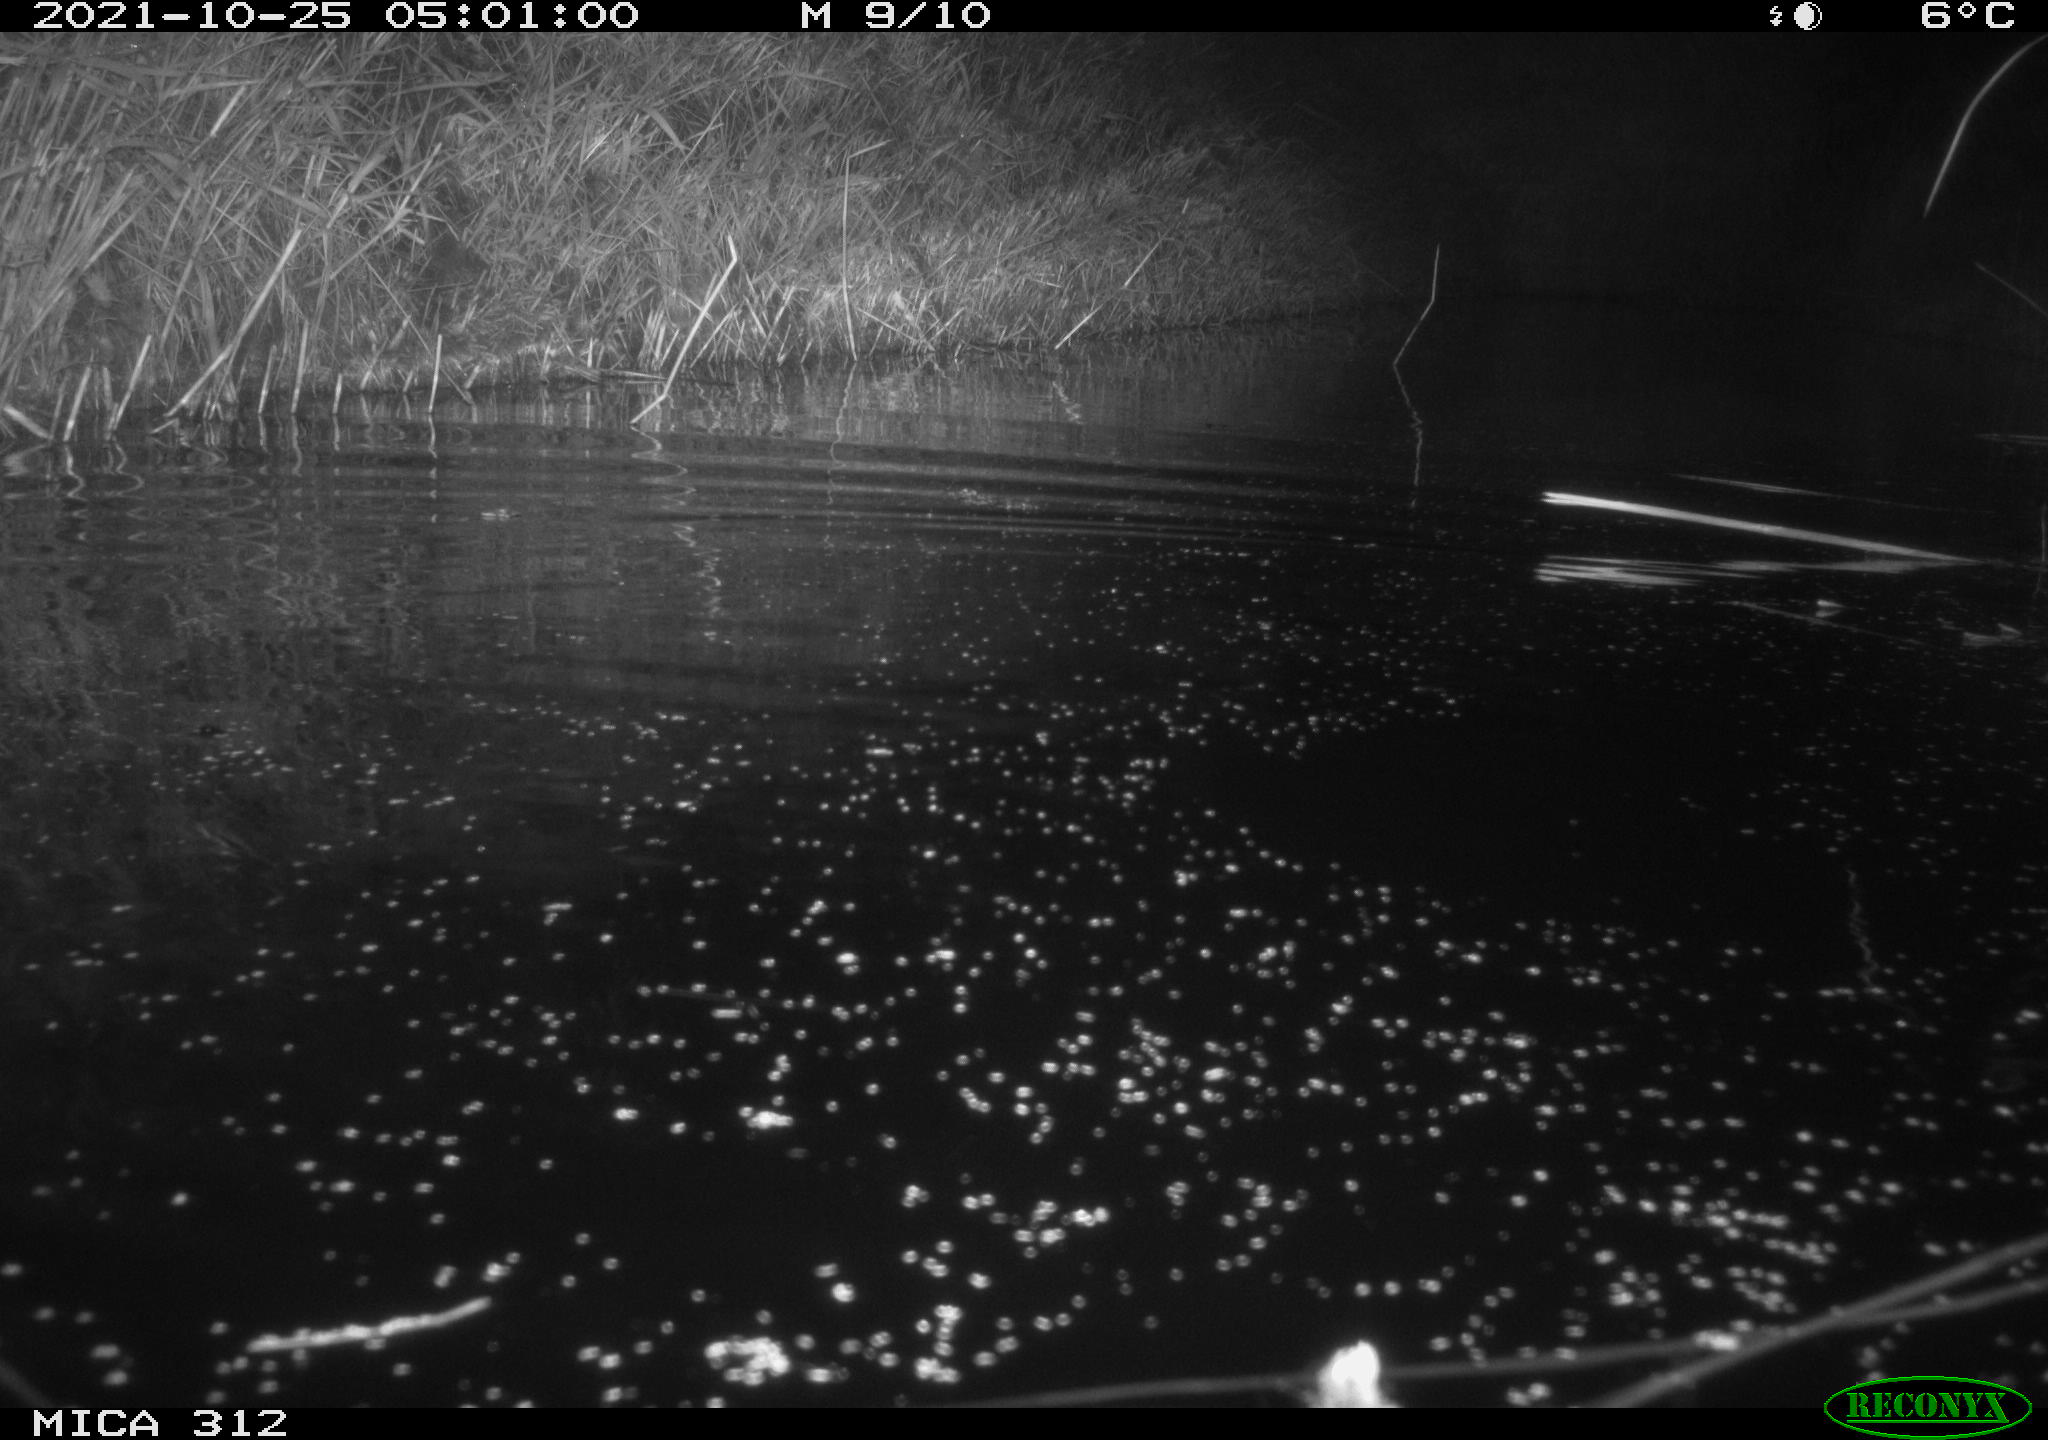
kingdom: Animalia
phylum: Chordata
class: Mammalia
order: Rodentia
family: Cricetidae
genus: Ondatra
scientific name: Ondatra zibethicus
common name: Muskrat
